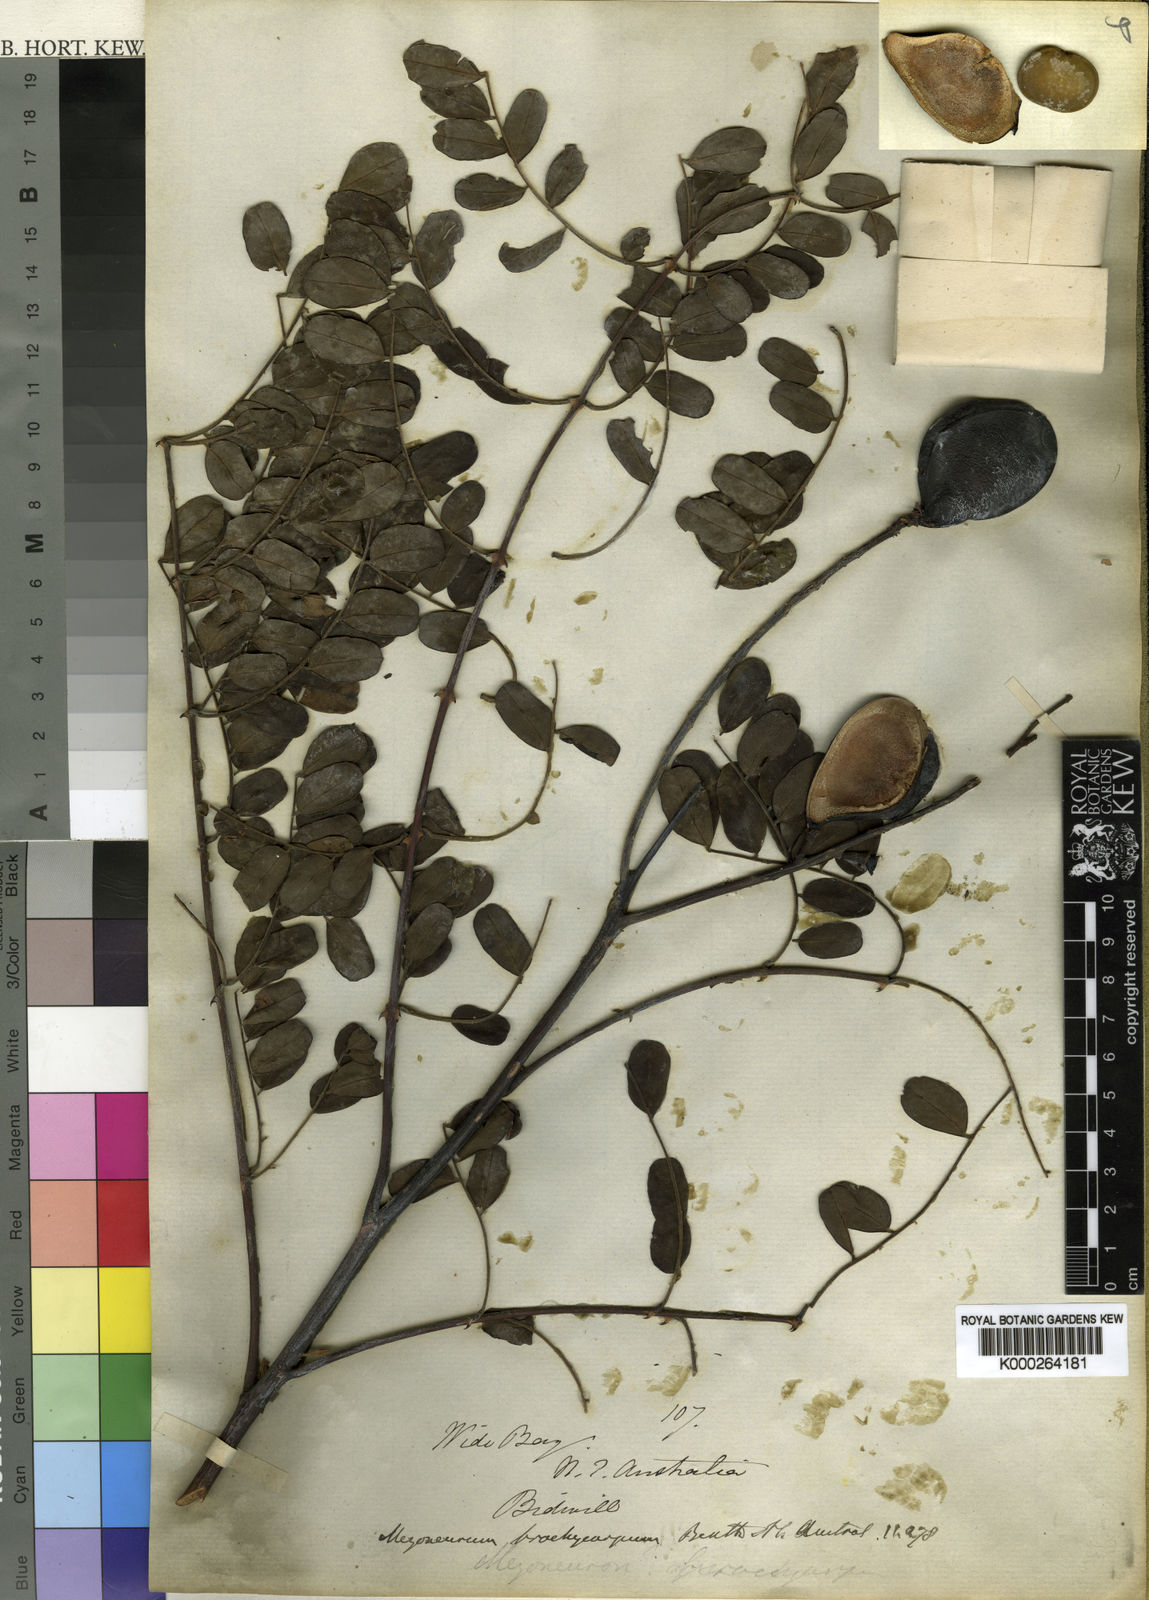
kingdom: Plantae
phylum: Tracheophyta
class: Magnoliopsida
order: Fabales
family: Fabaceae
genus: Mezoneuron
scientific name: Mezoneuron scortechinii
